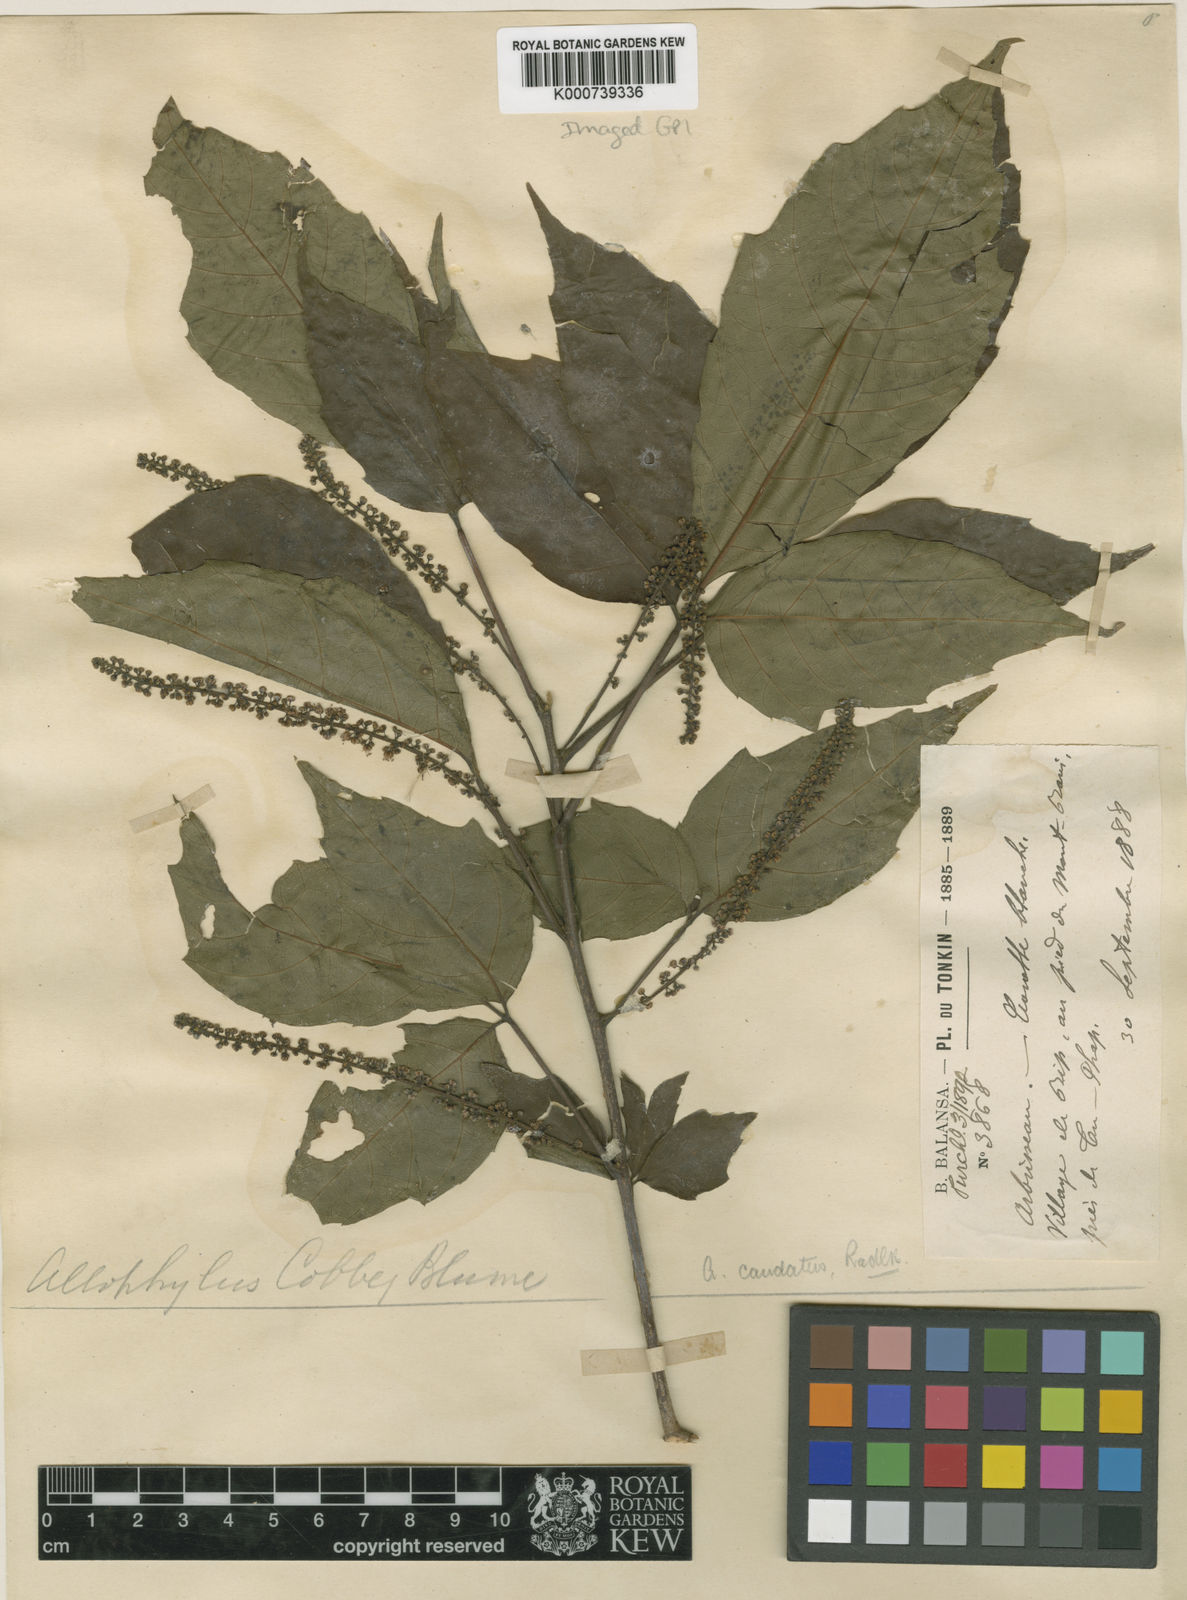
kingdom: Plantae
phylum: Tracheophyta
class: Magnoliopsida
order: Sapindales
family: Sapindaceae
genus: Allophylus
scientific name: Allophylus caudatus
